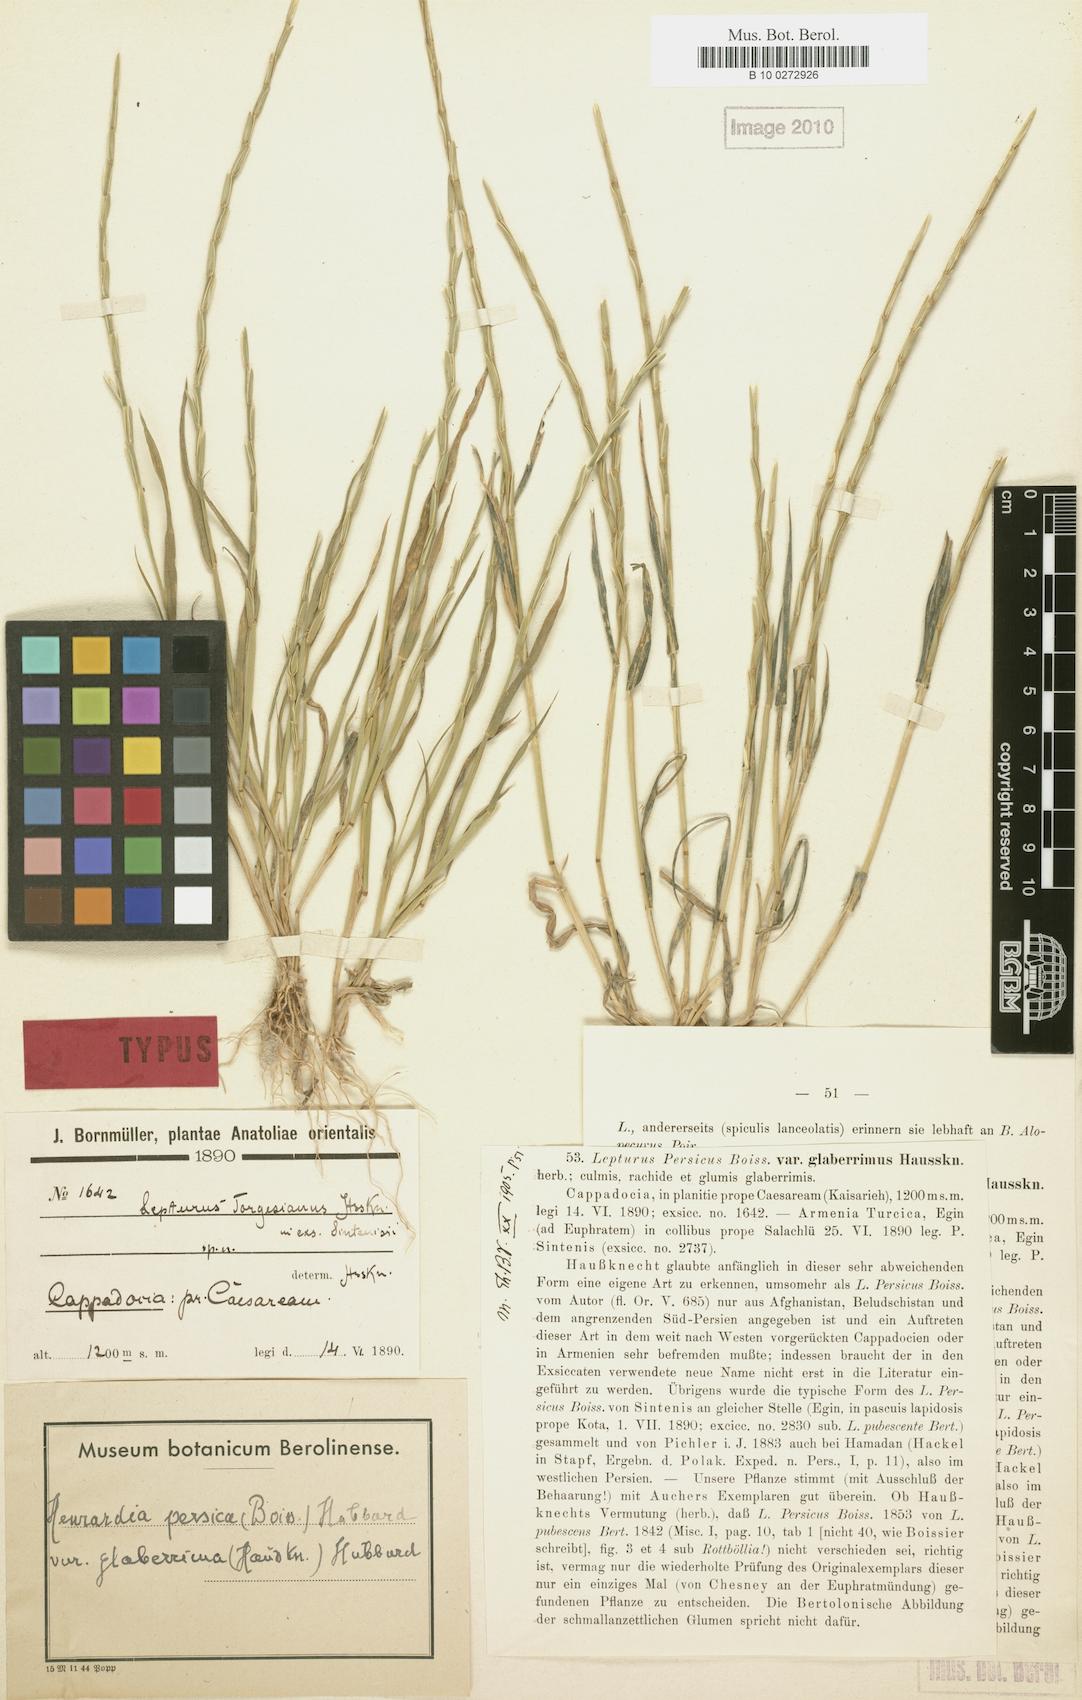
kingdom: Plantae
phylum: Tracheophyta
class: Liliopsida
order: Poales
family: Poaceae
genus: Henrardia
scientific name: Henrardia persica
